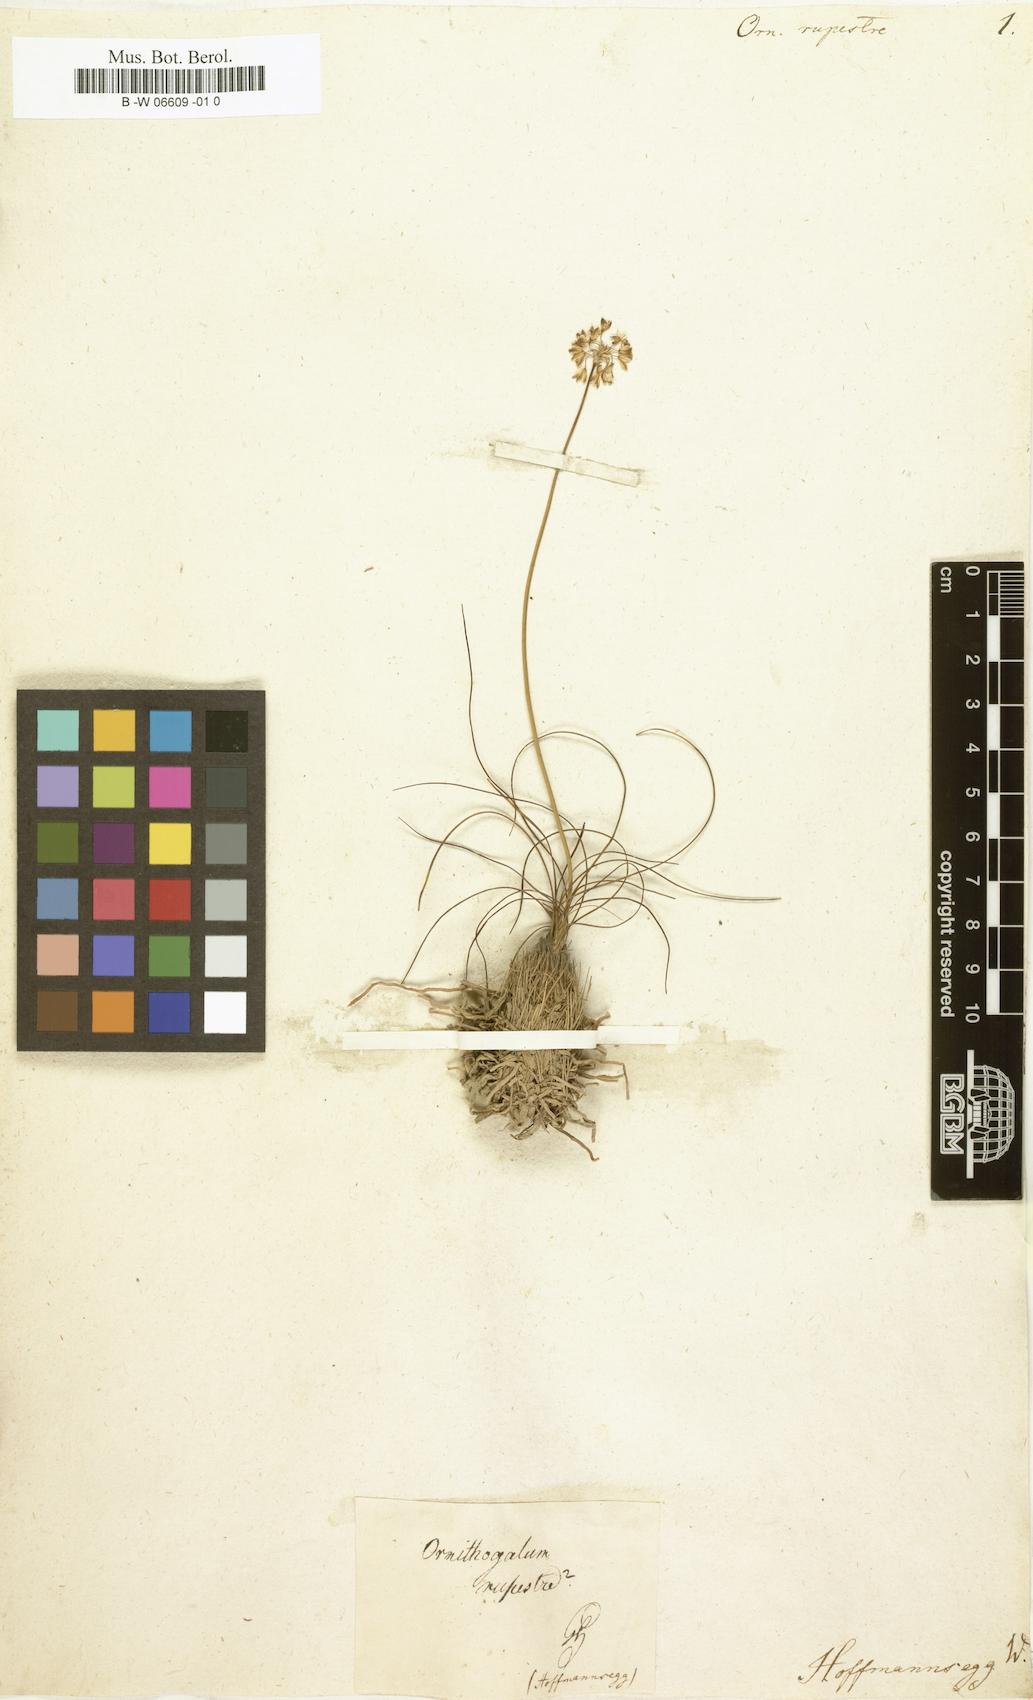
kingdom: Plantae
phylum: Tracheophyta
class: Liliopsida
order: Asparagales
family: Asparagaceae
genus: Ornithogalum
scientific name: Ornithogalum rupestre
